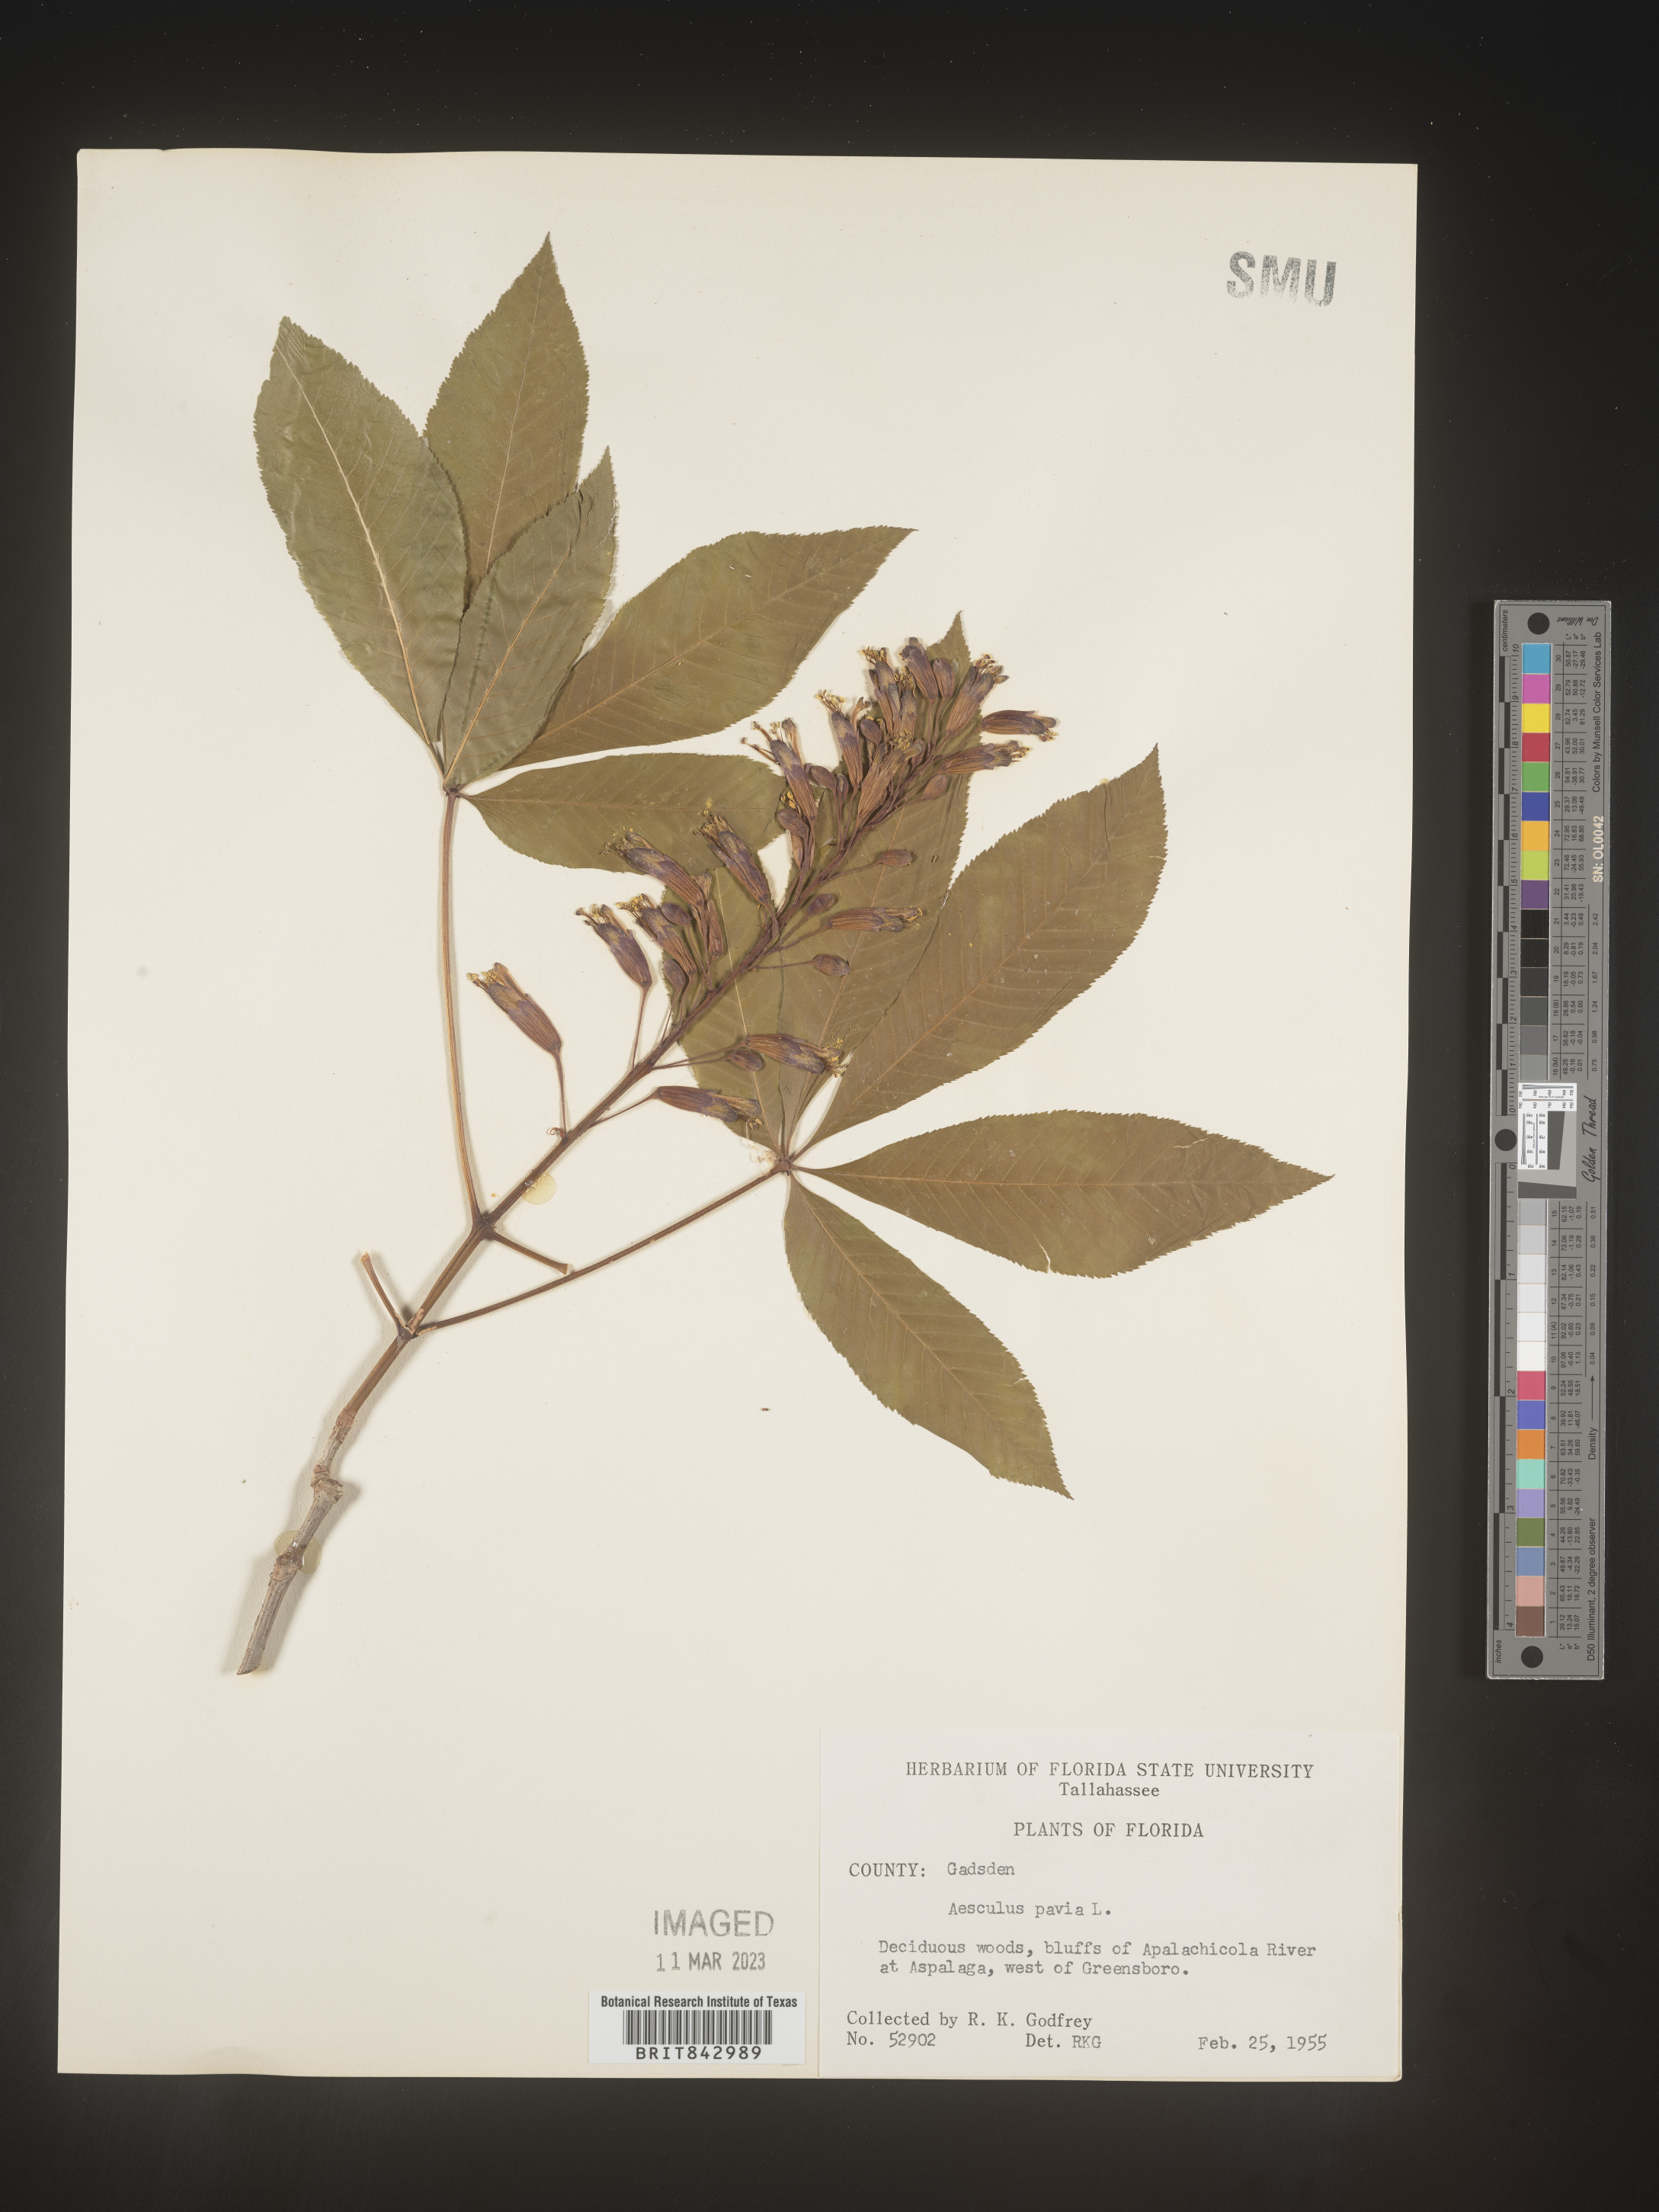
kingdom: Plantae
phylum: Tracheophyta
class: Magnoliopsida
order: Sapindales
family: Sapindaceae
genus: Aesculus
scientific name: Aesculus pavia
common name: Red buckeye
